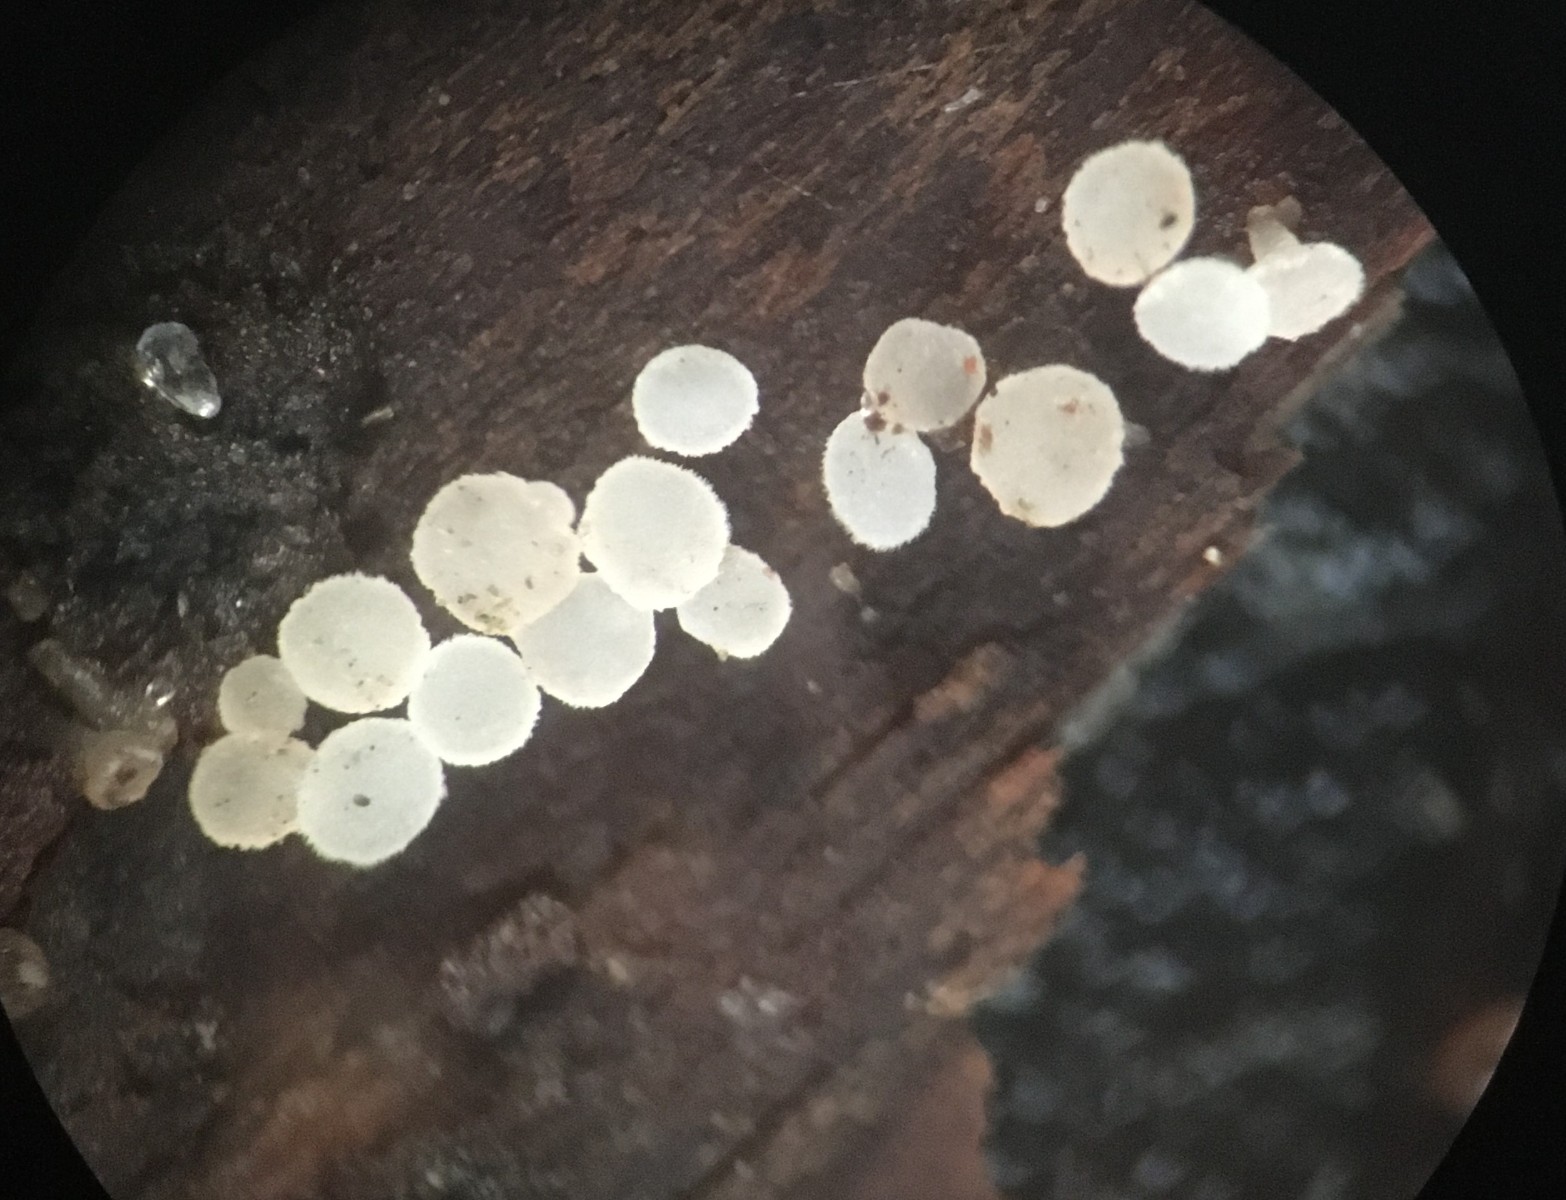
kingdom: Fungi
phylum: Ascomycota
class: Leotiomycetes
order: Helotiales
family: Helotiaceae
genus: Hymenoscyphus
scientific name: Hymenoscyphus
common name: stilkskive
